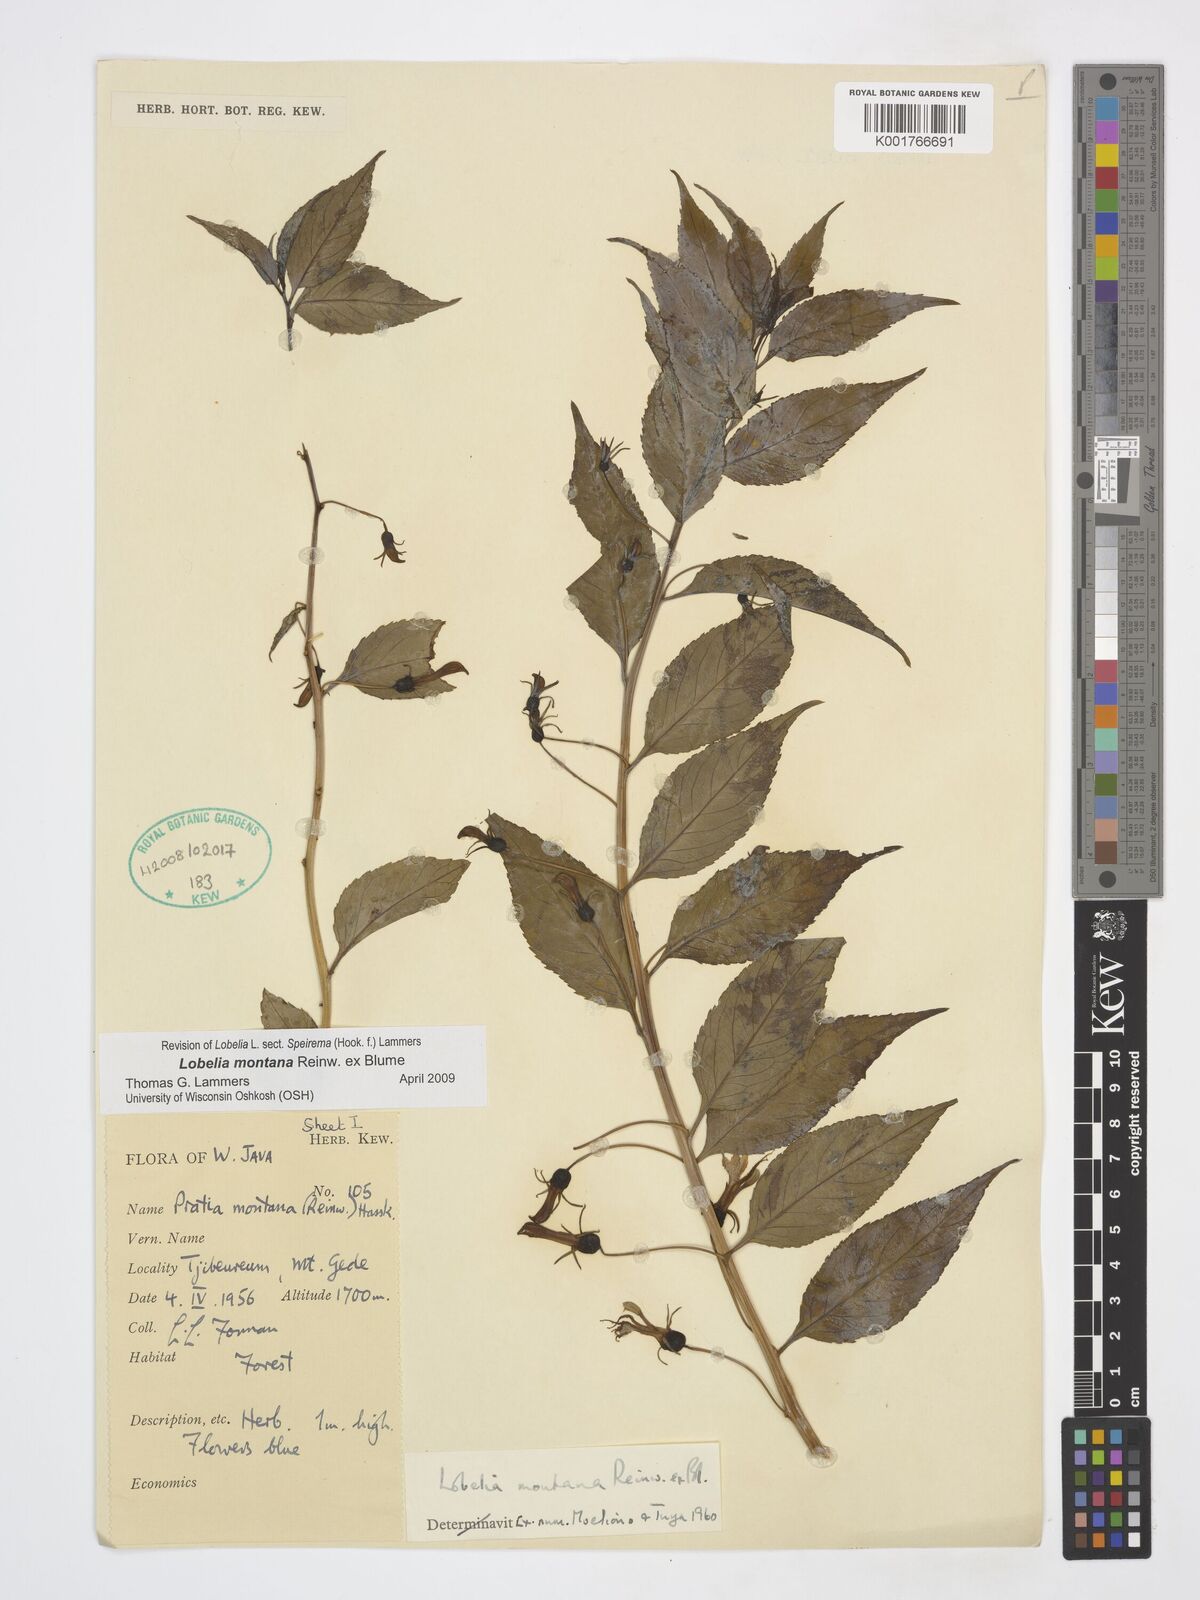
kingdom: Plantae
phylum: Tracheophyta
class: Magnoliopsida
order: Asterales
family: Campanulaceae
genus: Lobelia
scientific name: Lobelia montana
